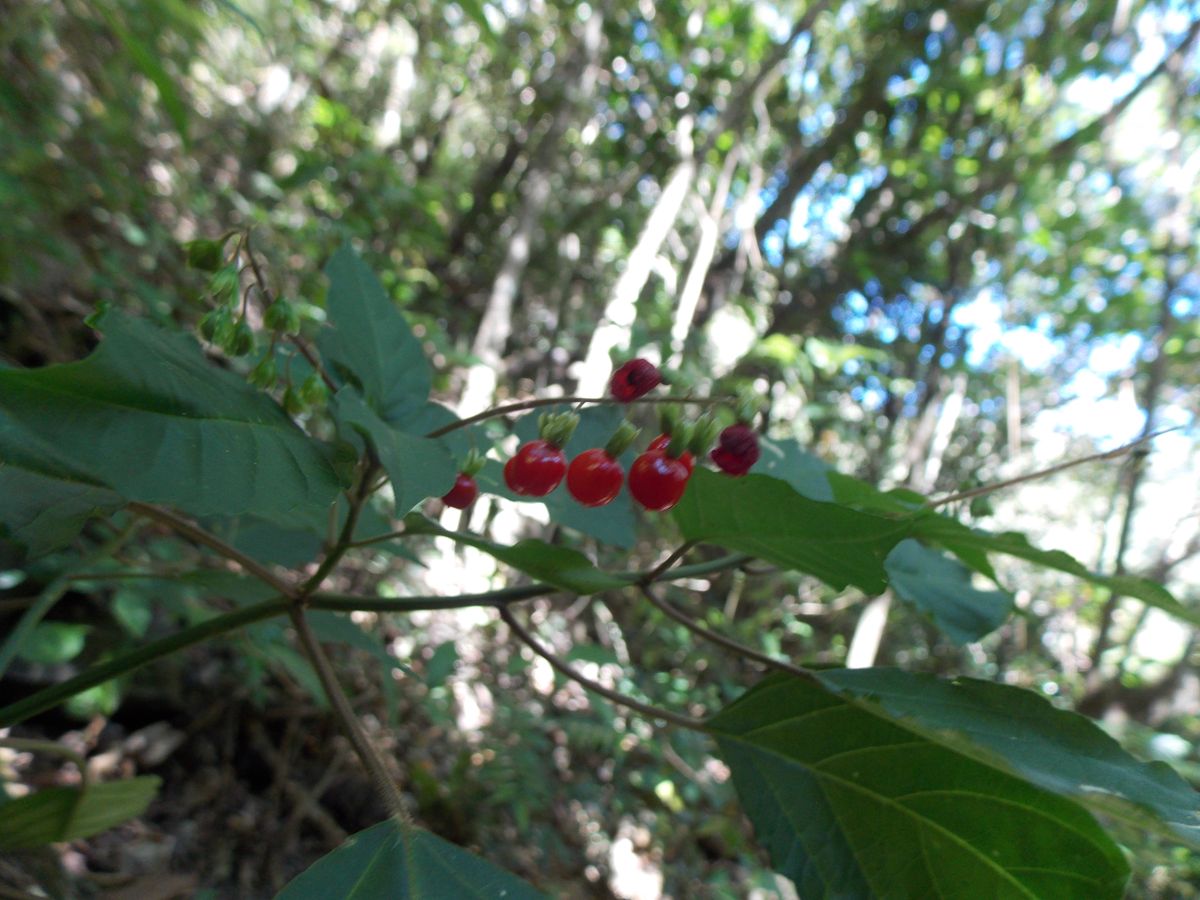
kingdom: Plantae
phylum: Tracheophyta
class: Magnoliopsida
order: Caryophyllales
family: Phytolaccaceae
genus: Rivina
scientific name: Rivina humilis
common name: Rougeplant
